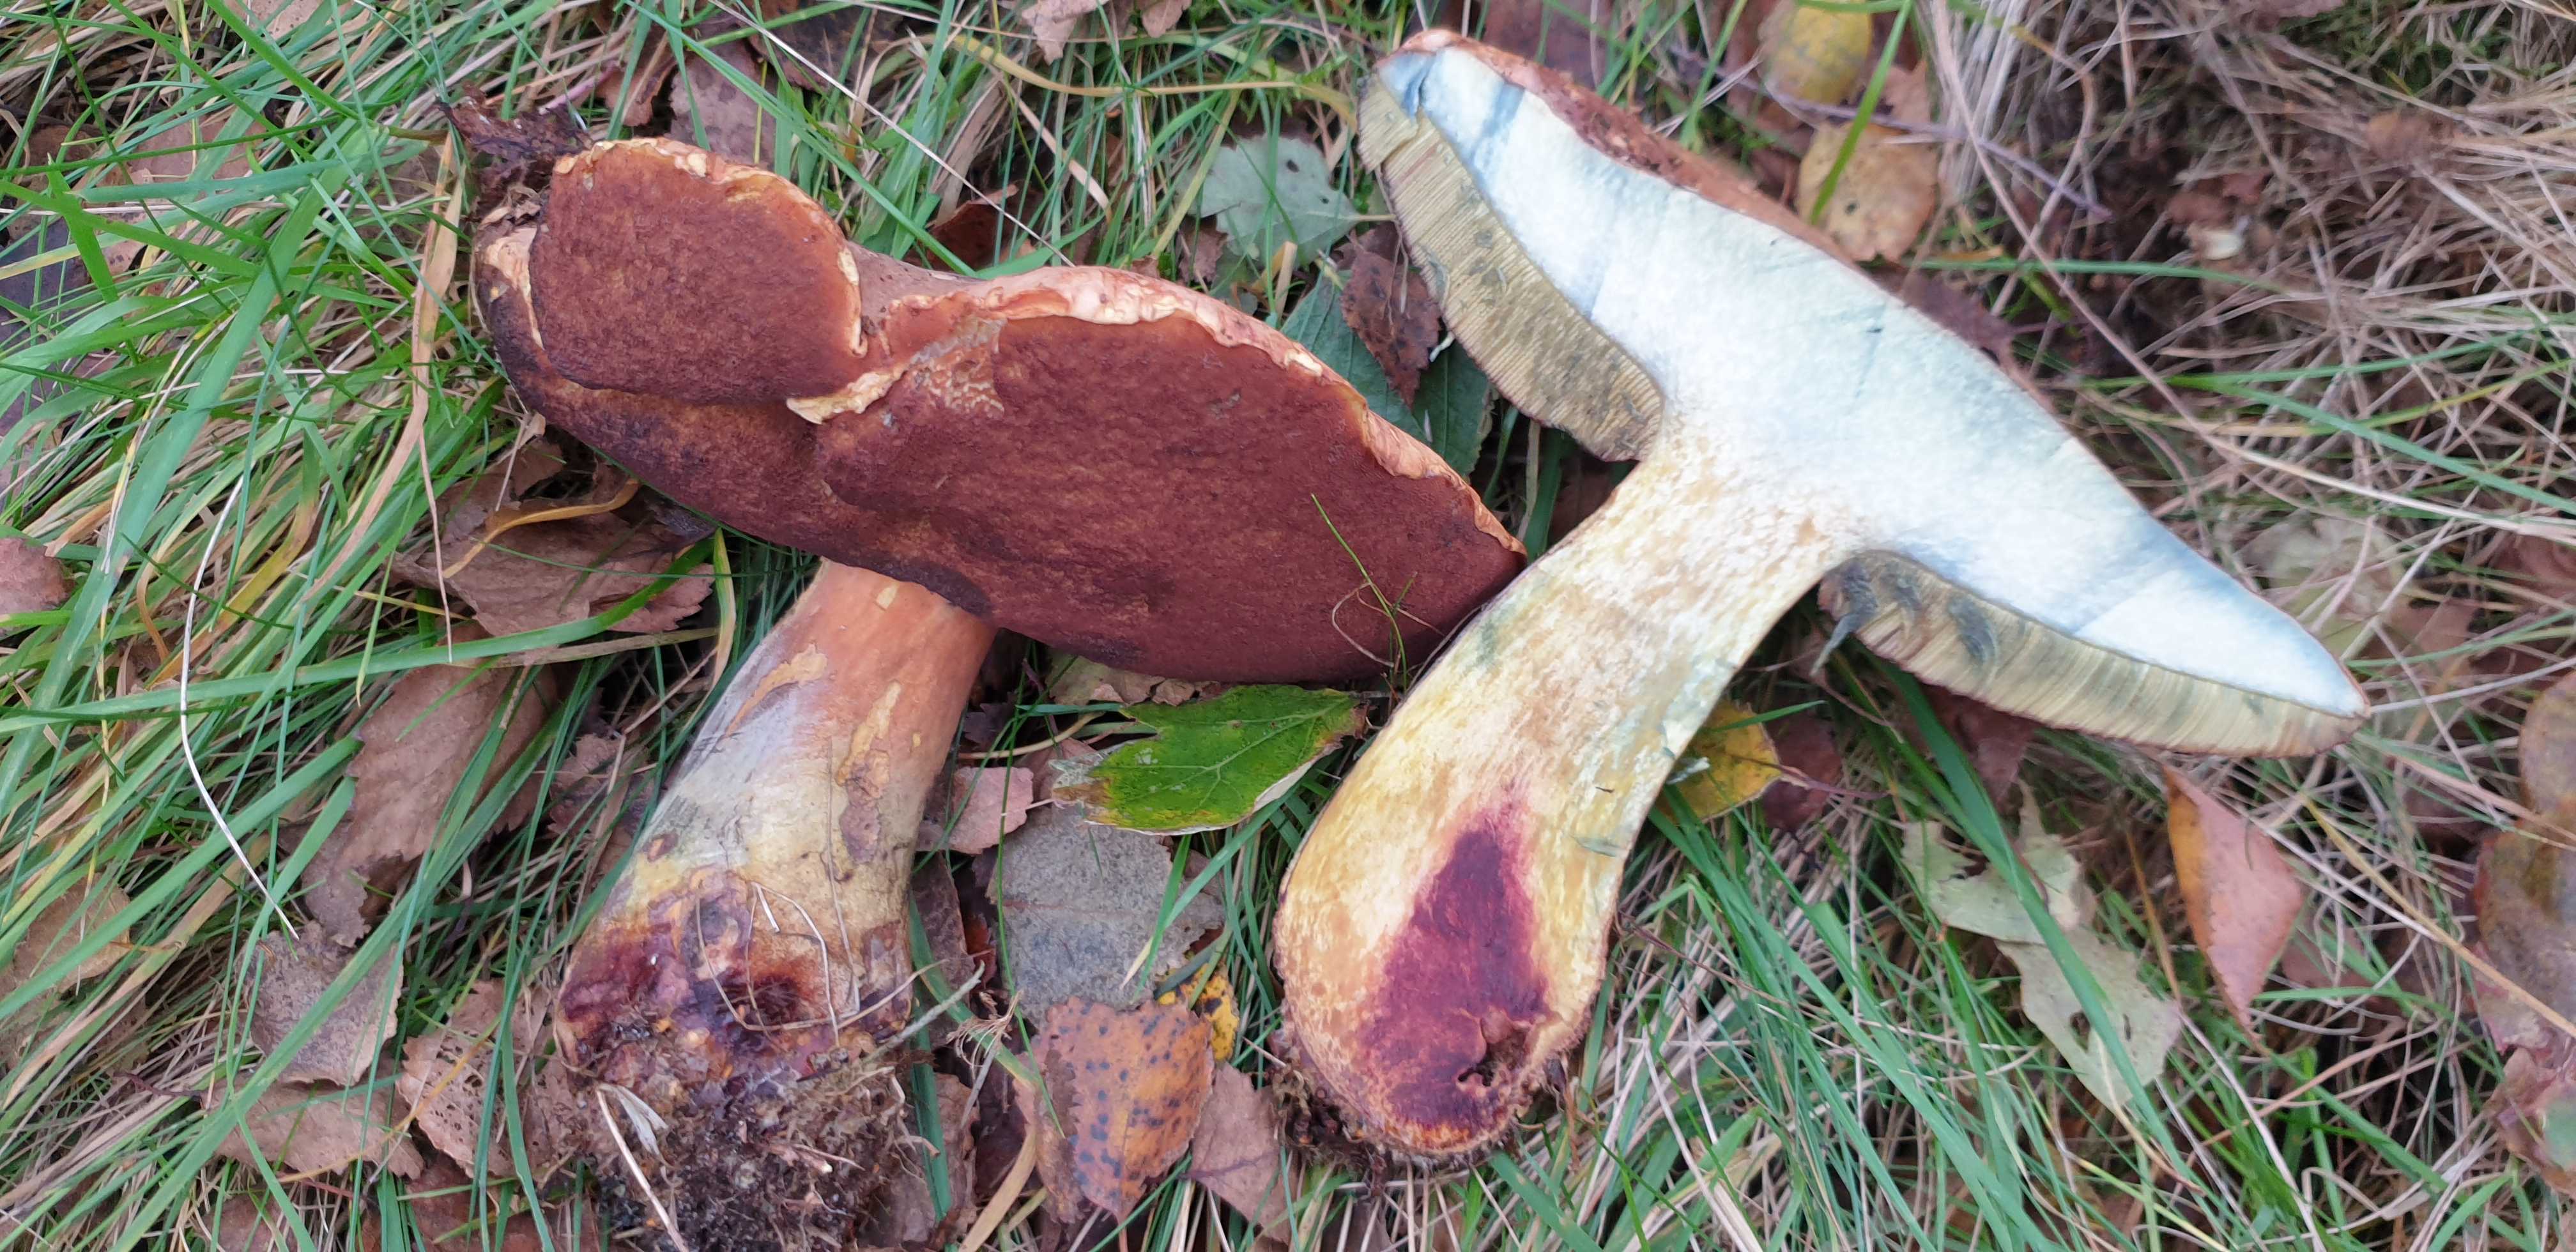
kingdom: Fungi
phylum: Basidiomycota
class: Agaricomycetes
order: Boletales
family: Boletaceae
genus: Neoboletus
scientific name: Neoboletus erythropus
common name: punktstokket indigorørhat
